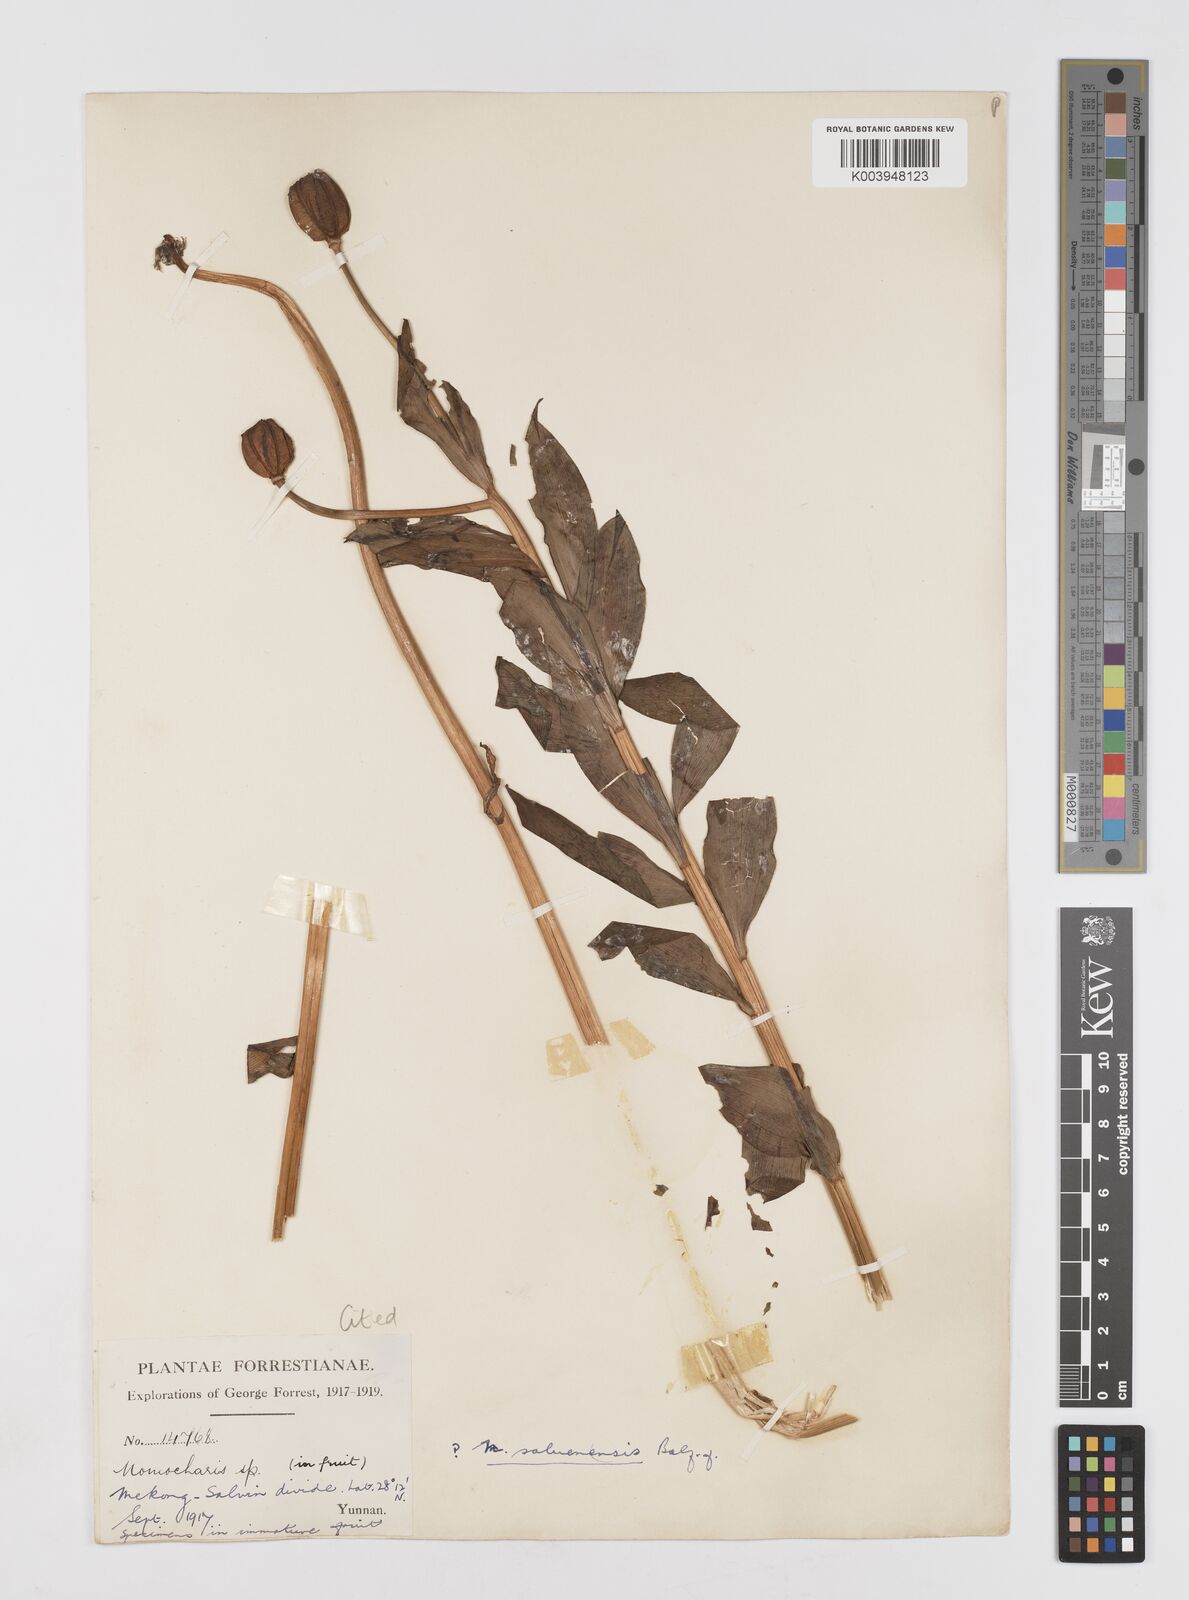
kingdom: Plantae
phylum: Tracheophyta
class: Liliopsida
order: Liliales
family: Liliaceae
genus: Lilium
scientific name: Lilium saluenense
